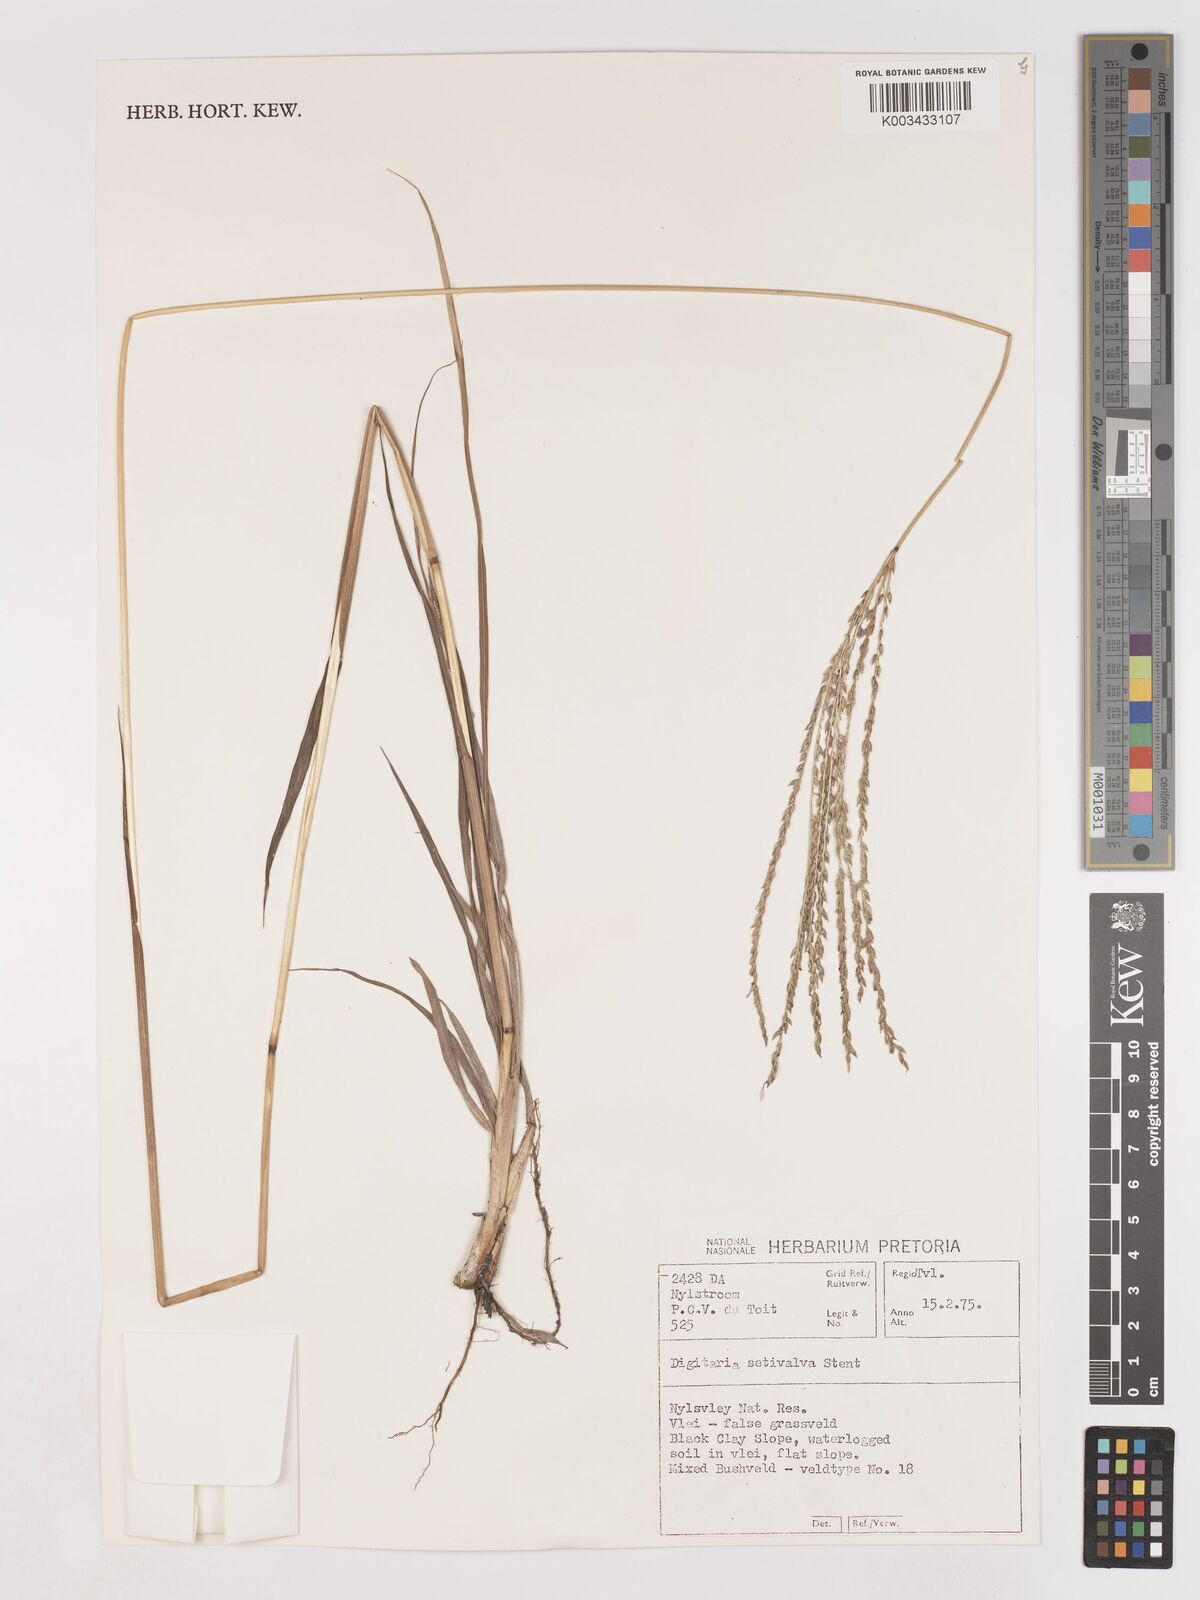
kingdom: Plantae
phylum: Tracheophyta
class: Liliopsida
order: Poales
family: Poaceae
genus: Digitaria
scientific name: Digitaria milanjiana
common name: Madagascar crabgrass
